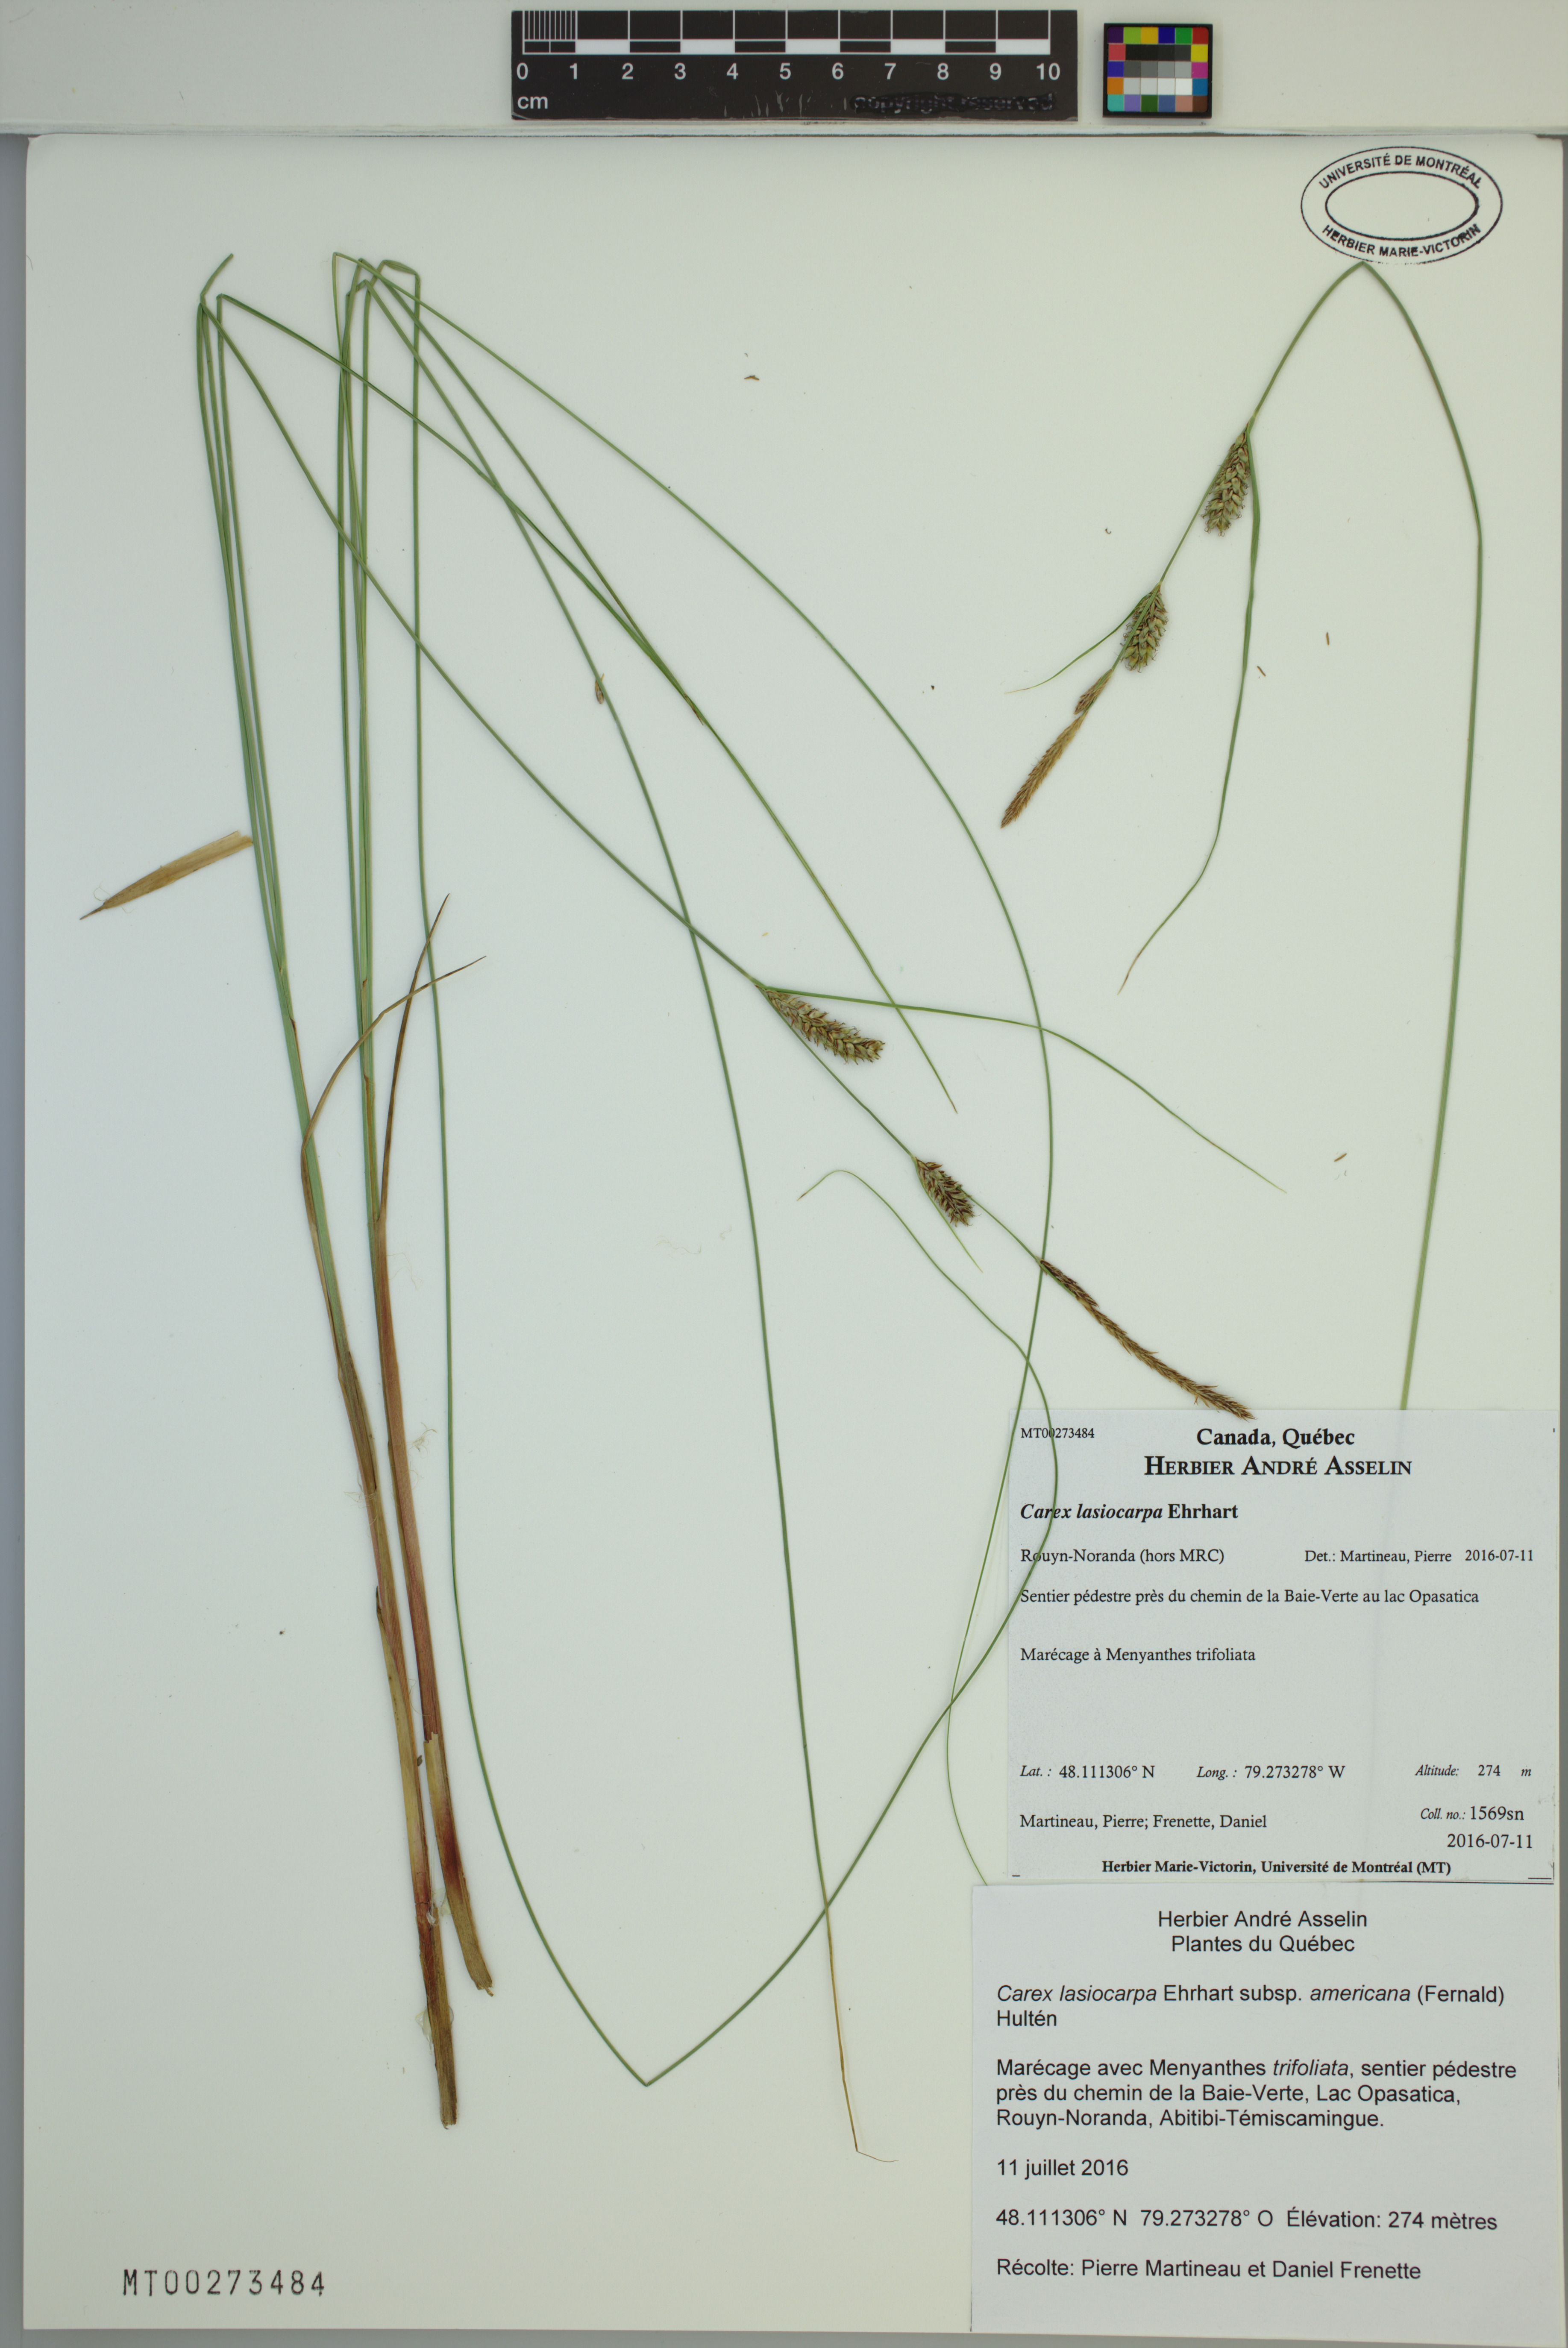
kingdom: Plantae
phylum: Tracheophyta
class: Liliopsida
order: Poales
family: Cyperaceae
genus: Carex
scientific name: Carex lasiocarpa
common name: Slender sedge
